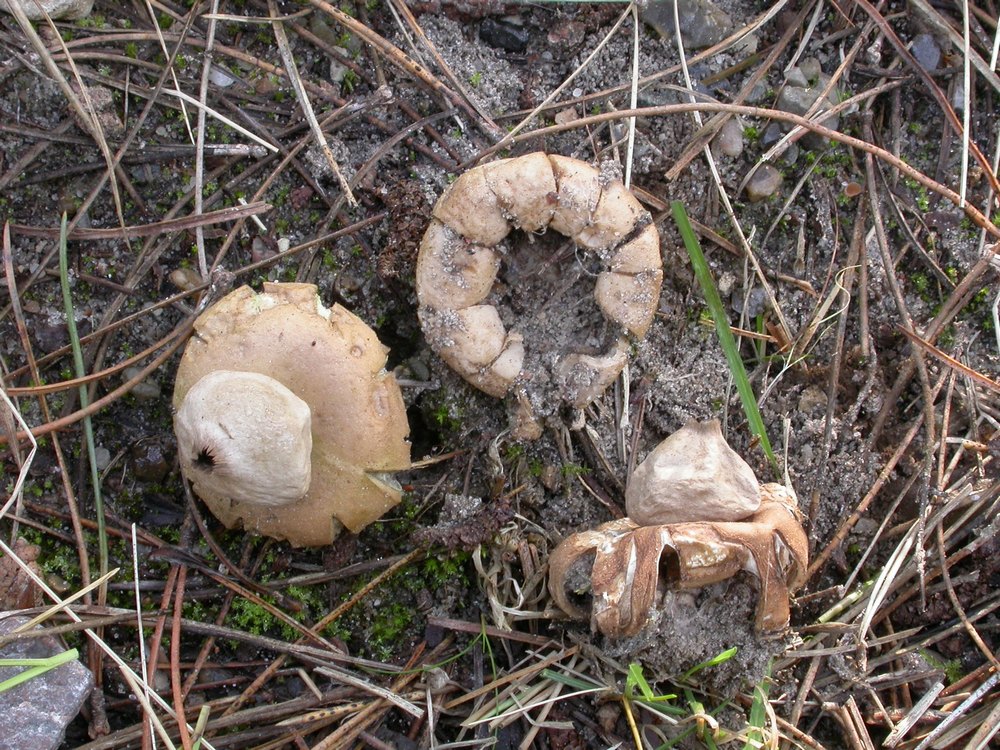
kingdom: Fungi
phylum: Basidiomycota
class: Agaricomycetes
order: Geastrales
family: Geastraceae
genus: Geastrum
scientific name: Geastrum fimbriatum
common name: frynset stjernebold
